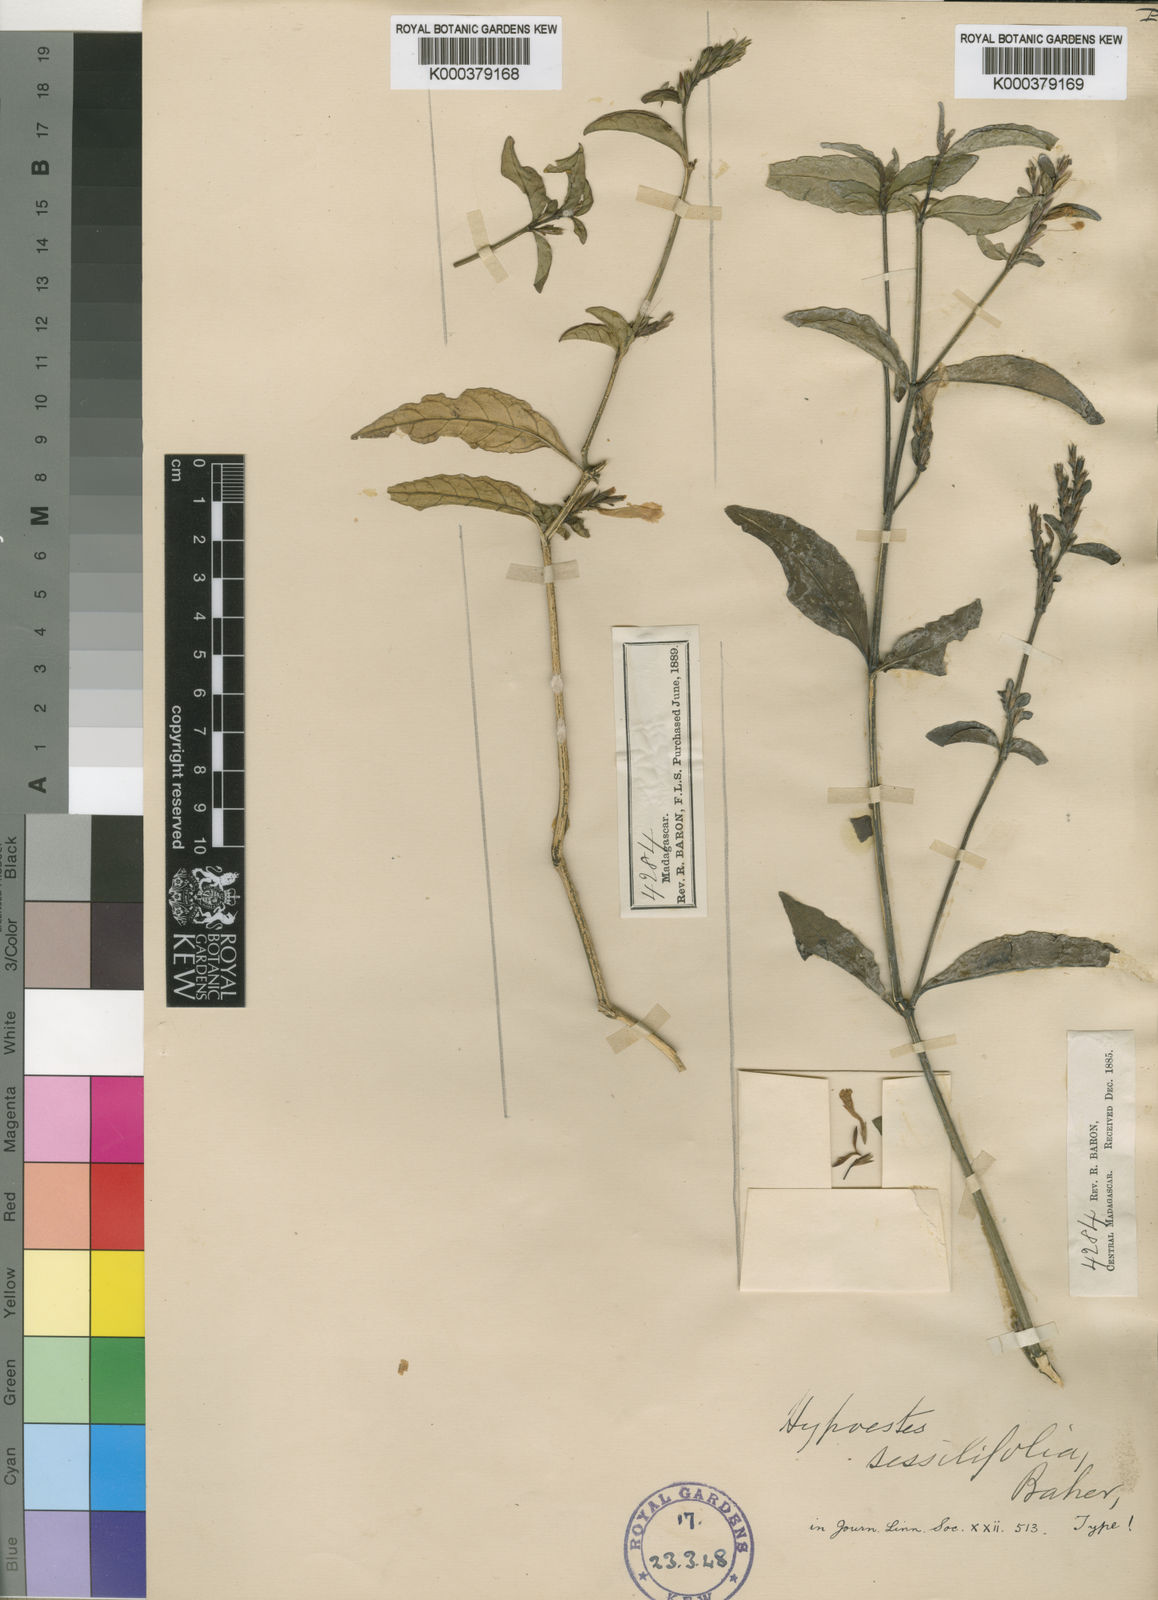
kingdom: Plantae
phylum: Tracheophyta
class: Magnoliopsida
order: Lamiales
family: Acanthaceae
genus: Hypoestes
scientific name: Hypoestes sessilifolia
